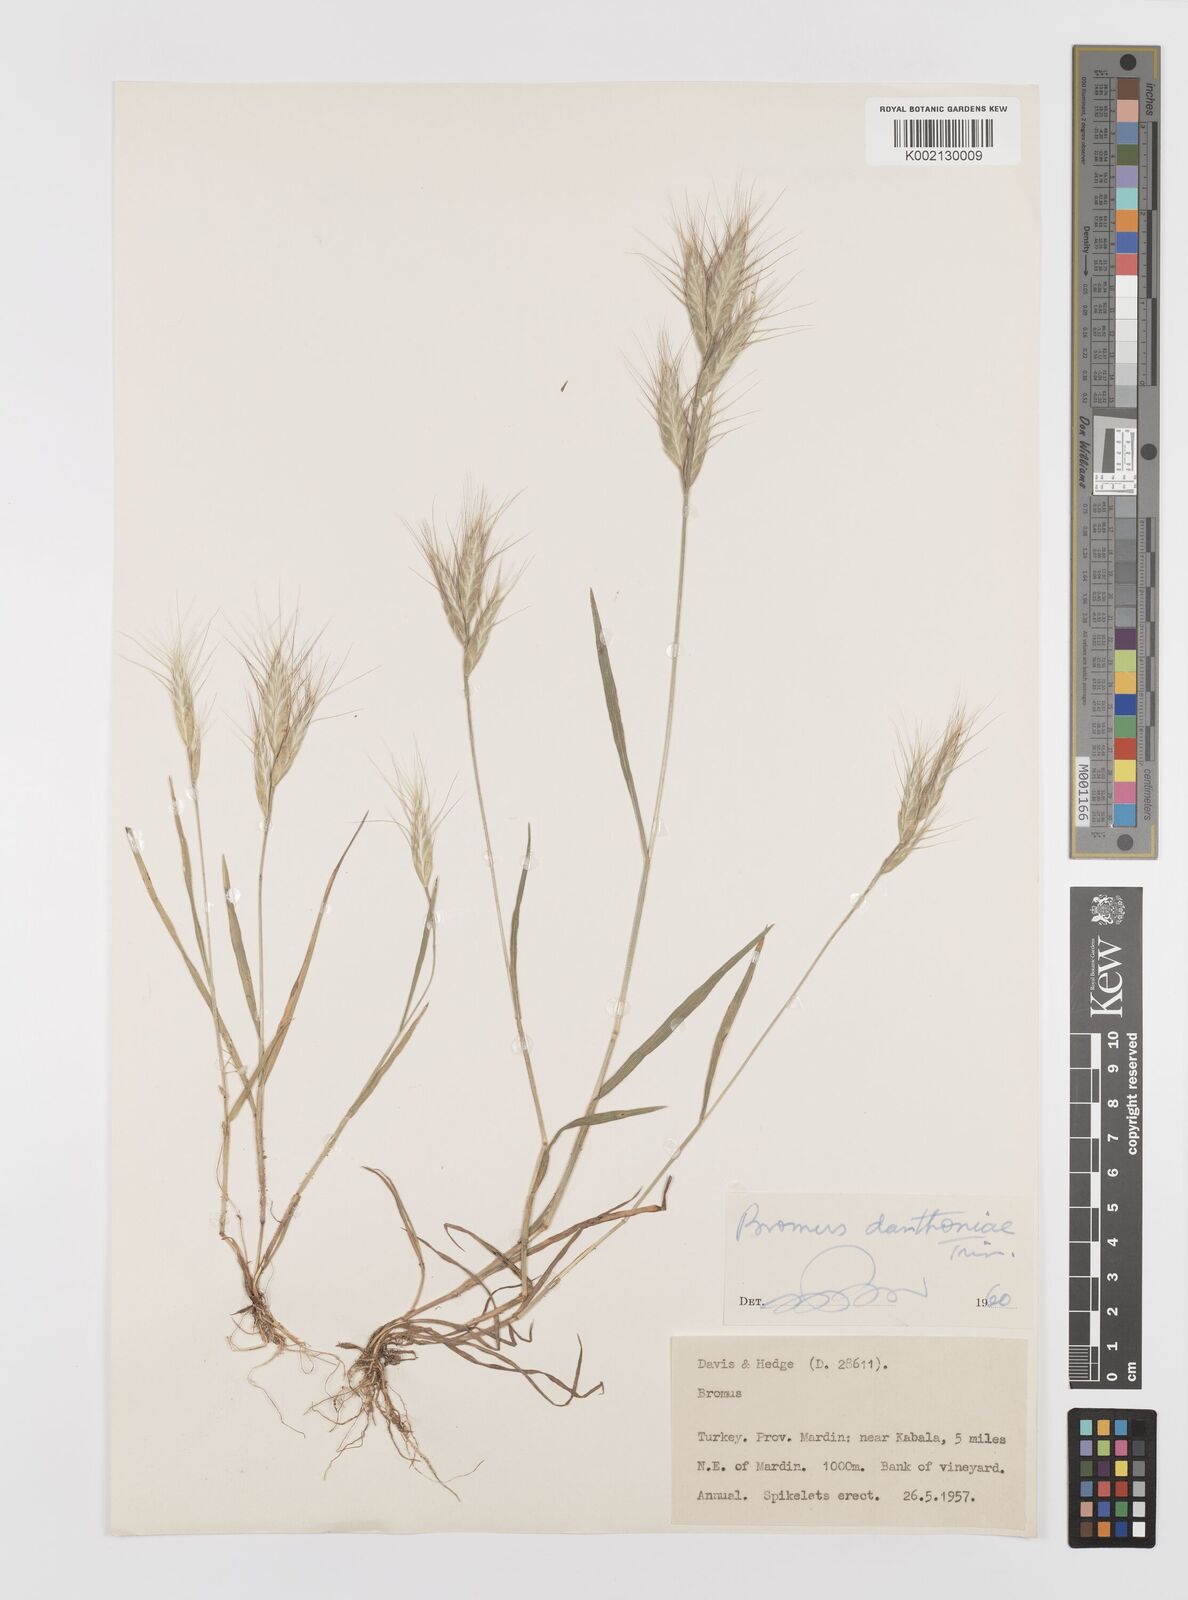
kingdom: Plantae
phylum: Tracheophyta
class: Liliopsida
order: Poales
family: Poaceae
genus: Bromus
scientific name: Bromus danthoniae
